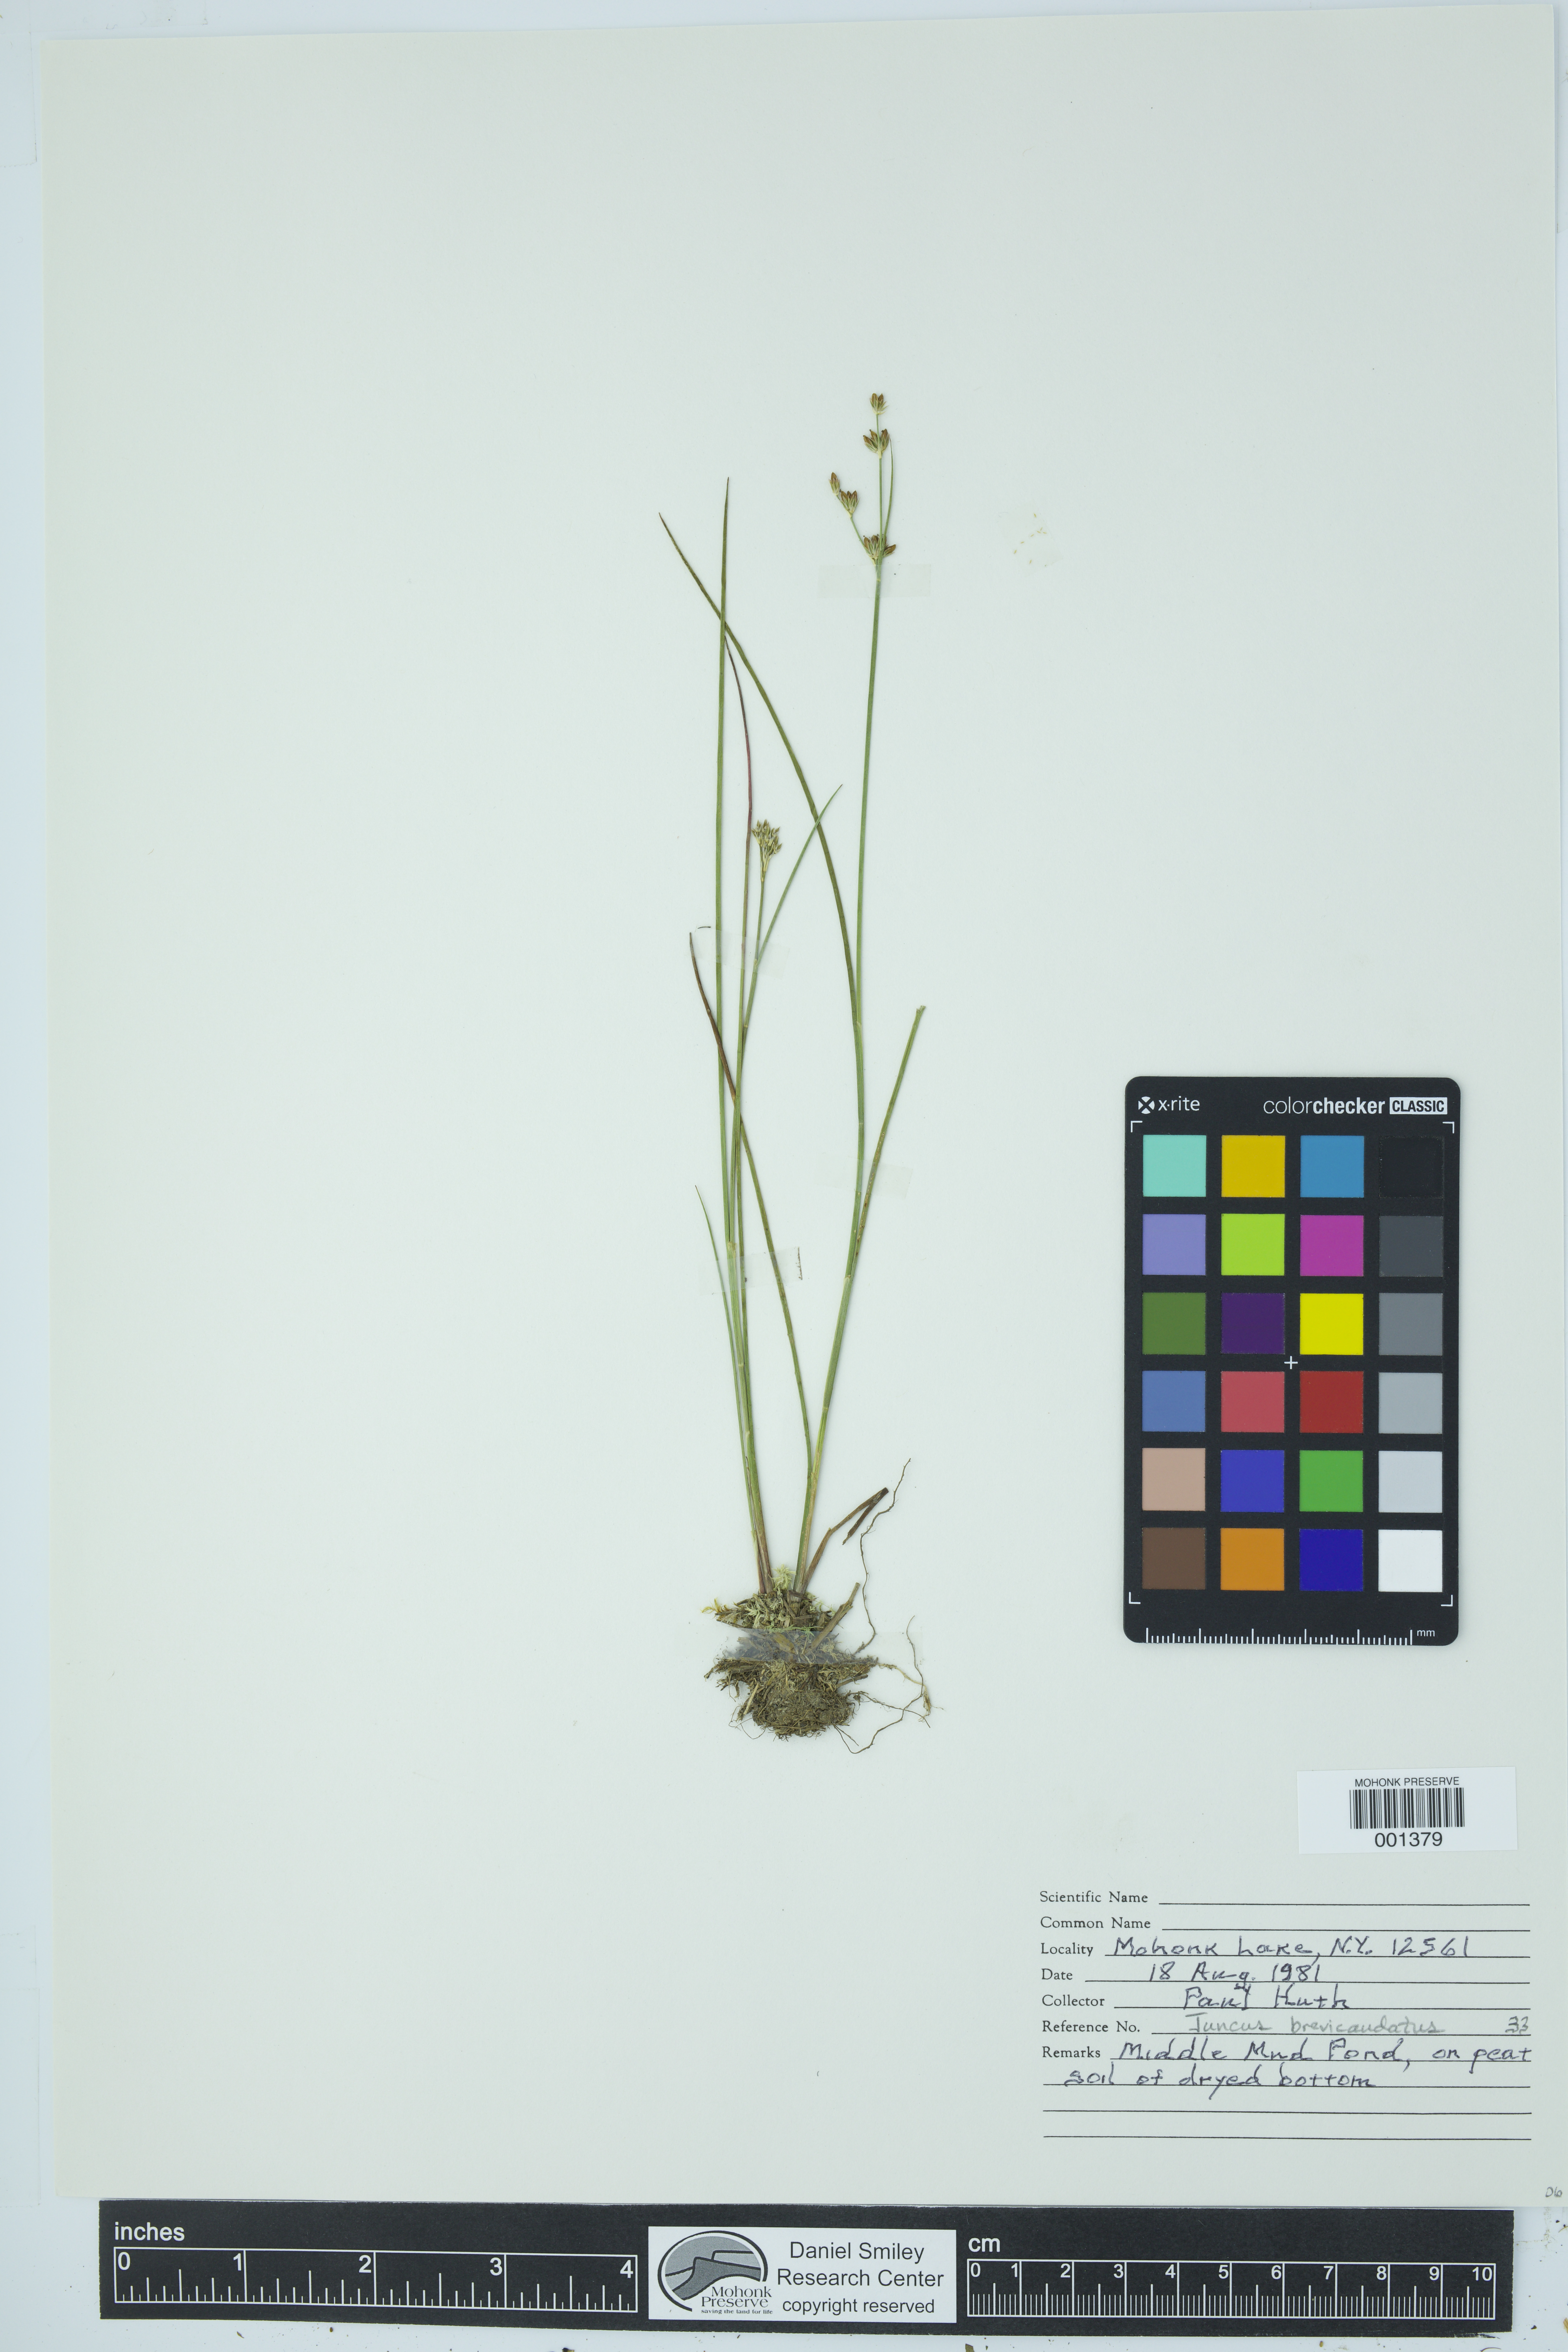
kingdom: Plantae
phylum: Tracheophyta
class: Liliopsida
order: Poales
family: Juncaceae
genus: Juncus
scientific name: Juncus brevicaudatus
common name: Narrow-panicle rush
